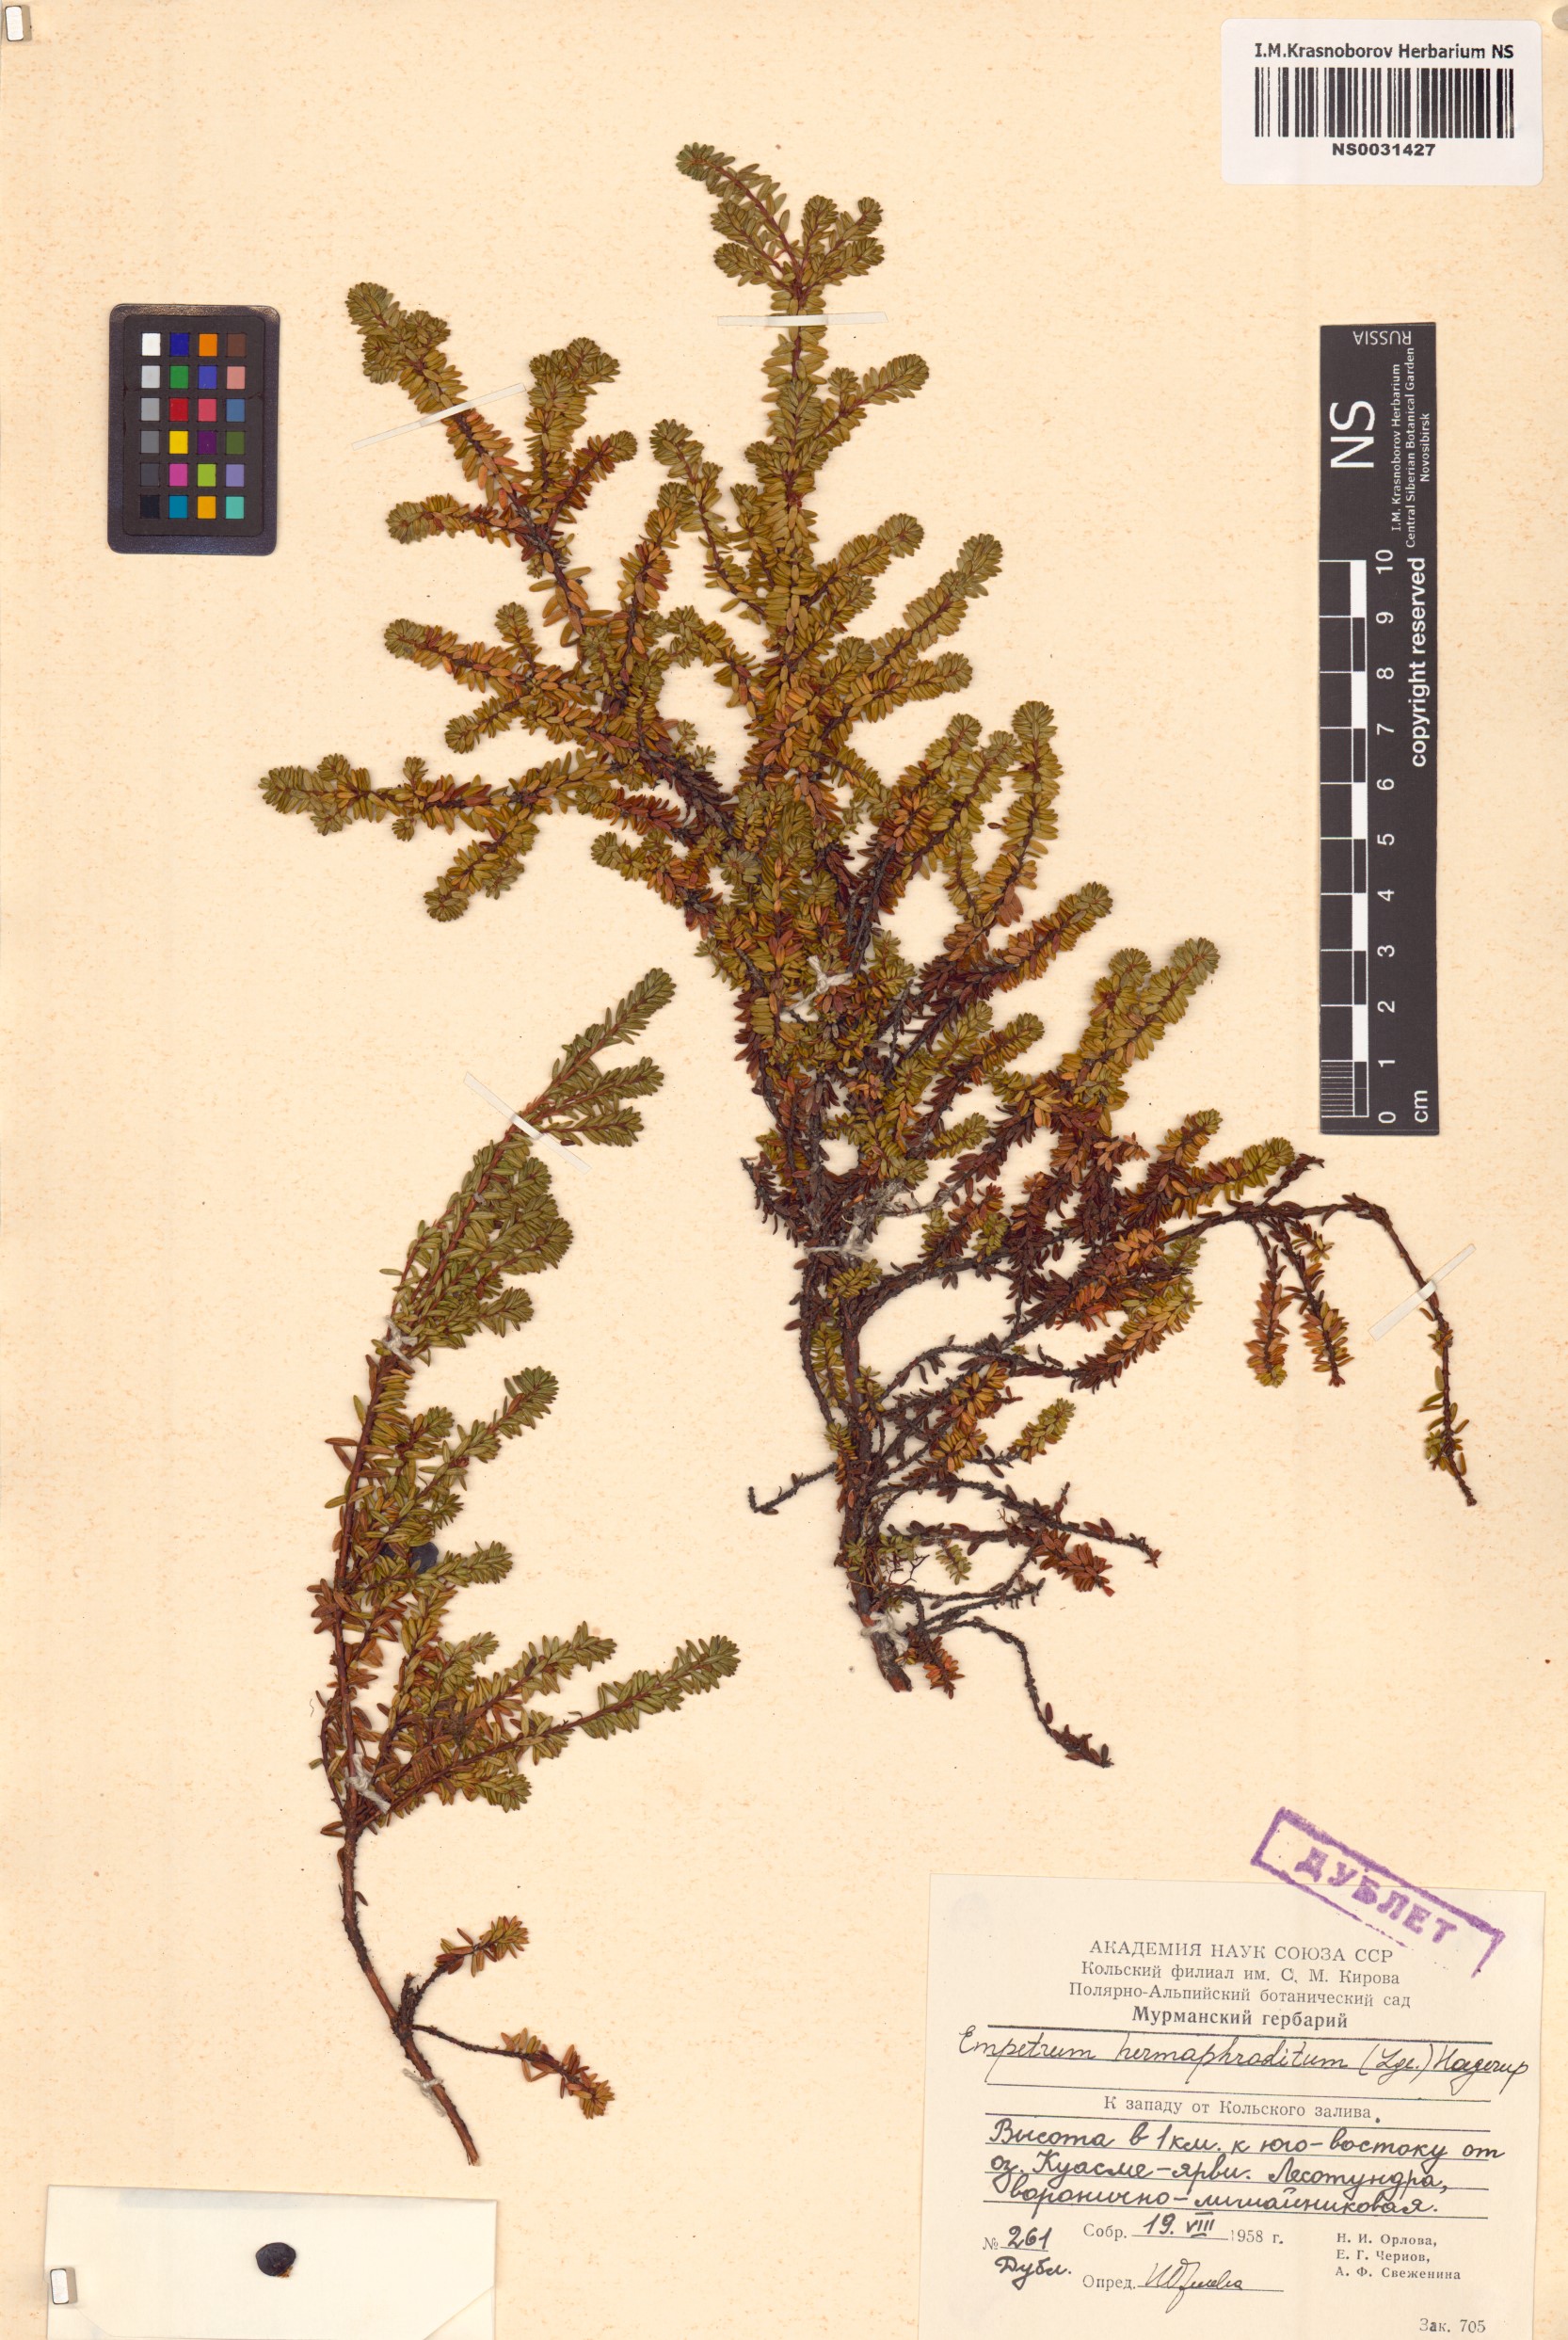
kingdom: Plantae
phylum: Tracheophyta
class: Magnoliopsida
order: Ericales
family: Ericaceae
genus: Empetrum
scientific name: Empetrum hermaphroditum
